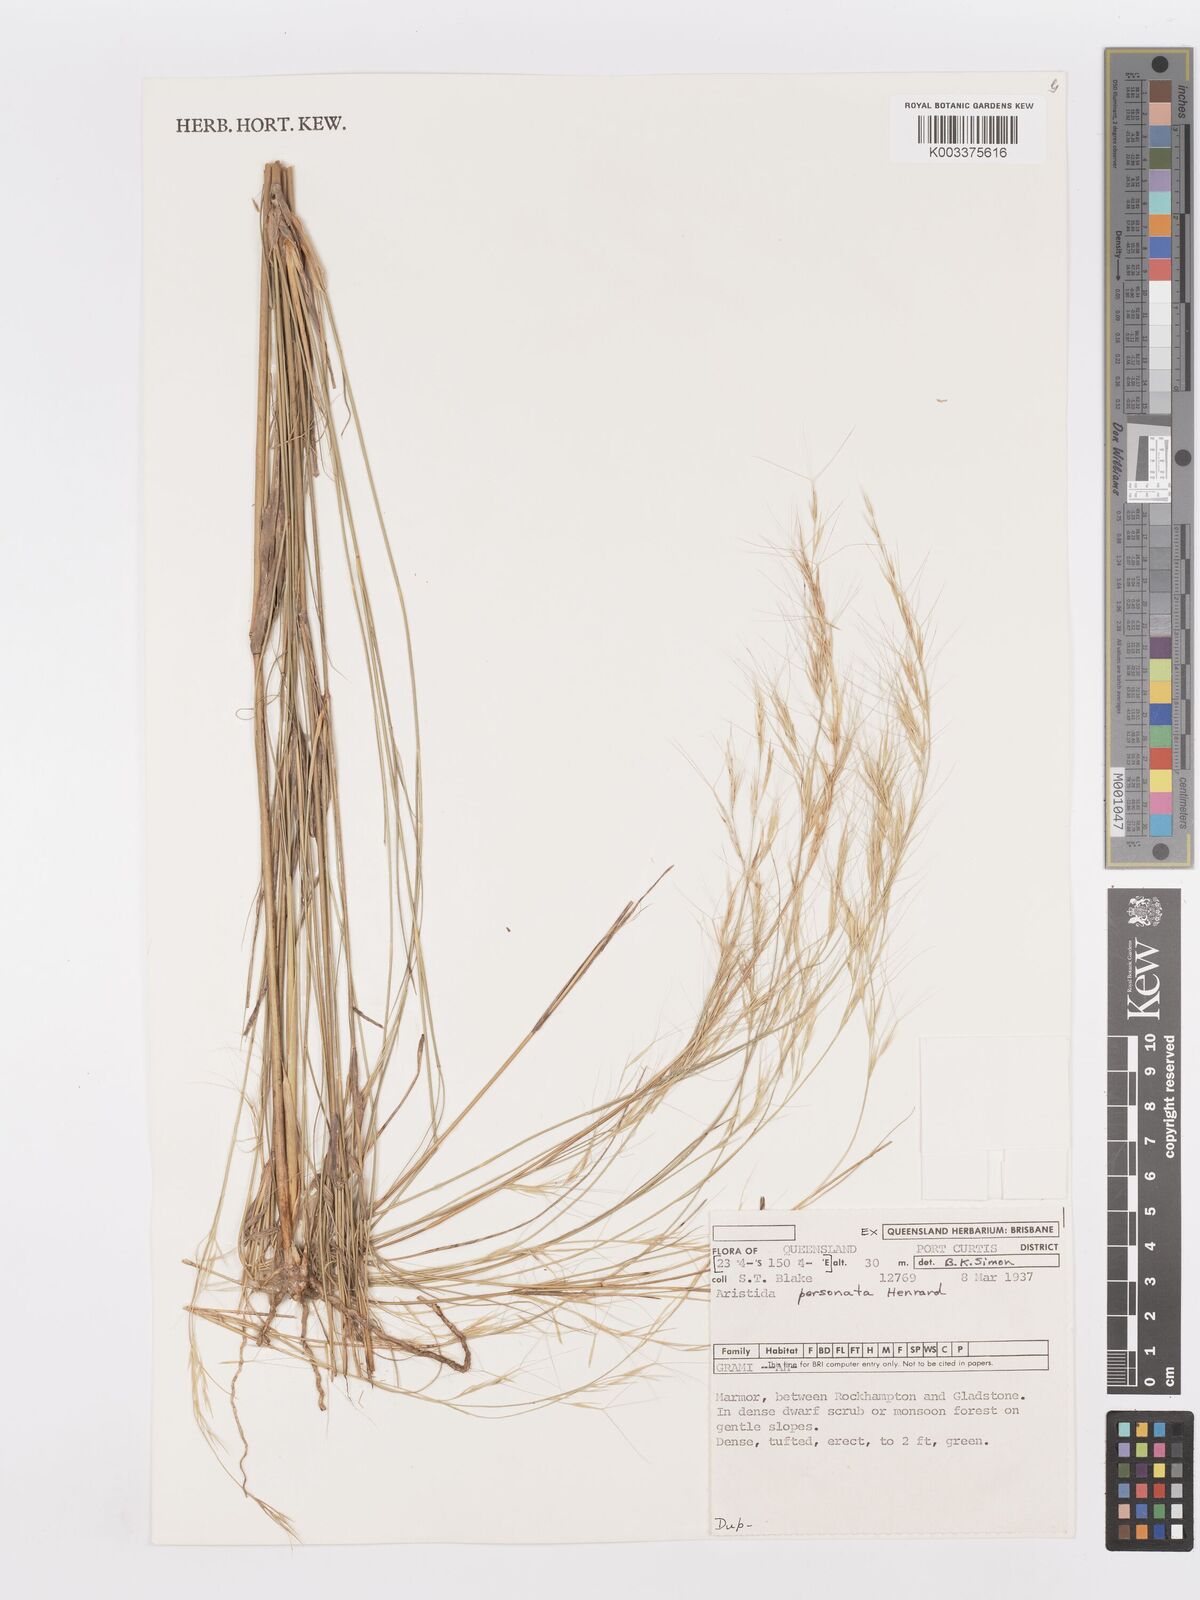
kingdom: Plantae
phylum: Tracheophyta
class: Liliopsida
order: Poales
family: Poaceae
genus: Aristida
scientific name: Aristida personata
